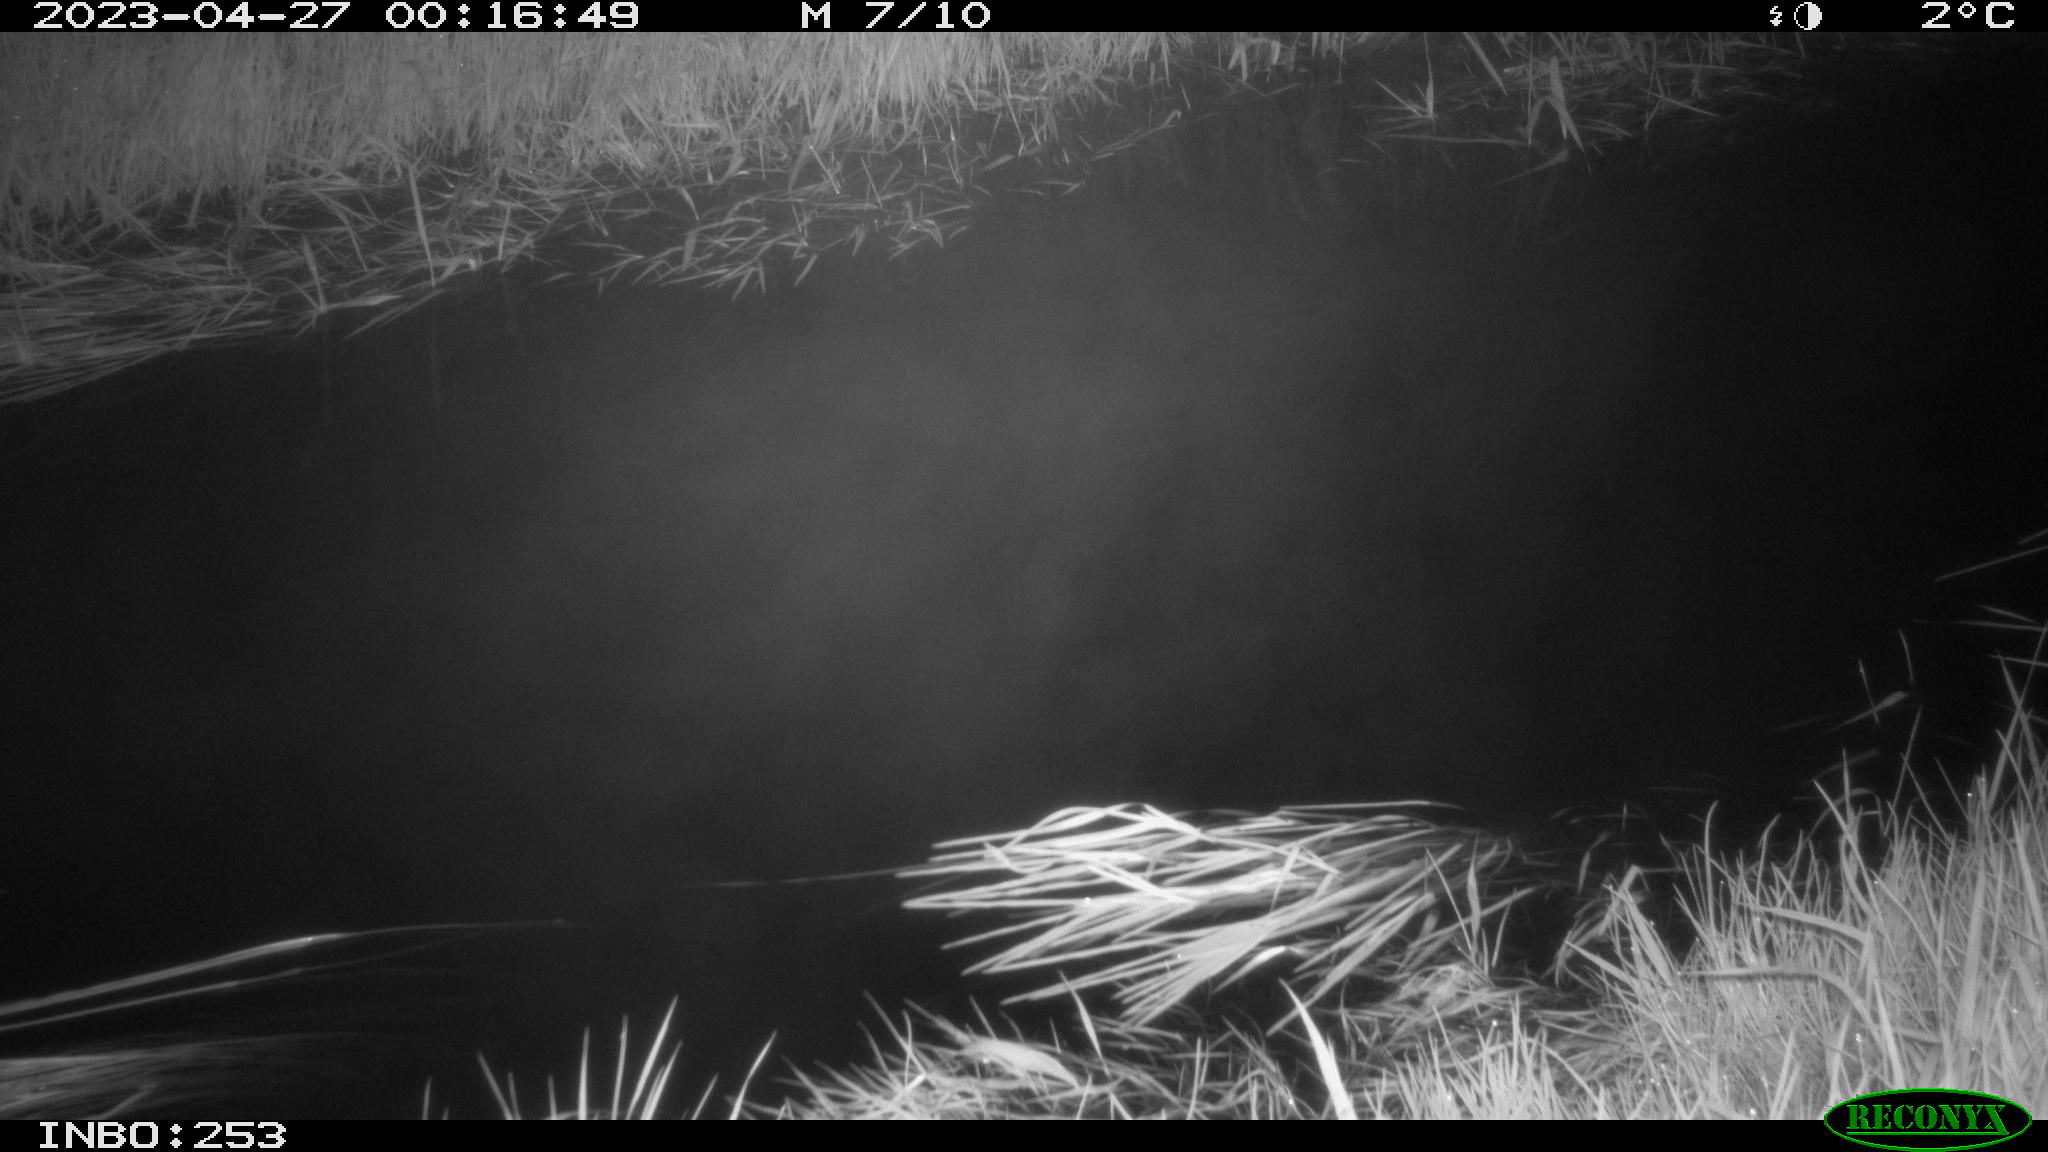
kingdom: Animalia
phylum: Chordata
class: Aves
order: Anseriformes
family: Anatidae
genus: Anas
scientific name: Anas
